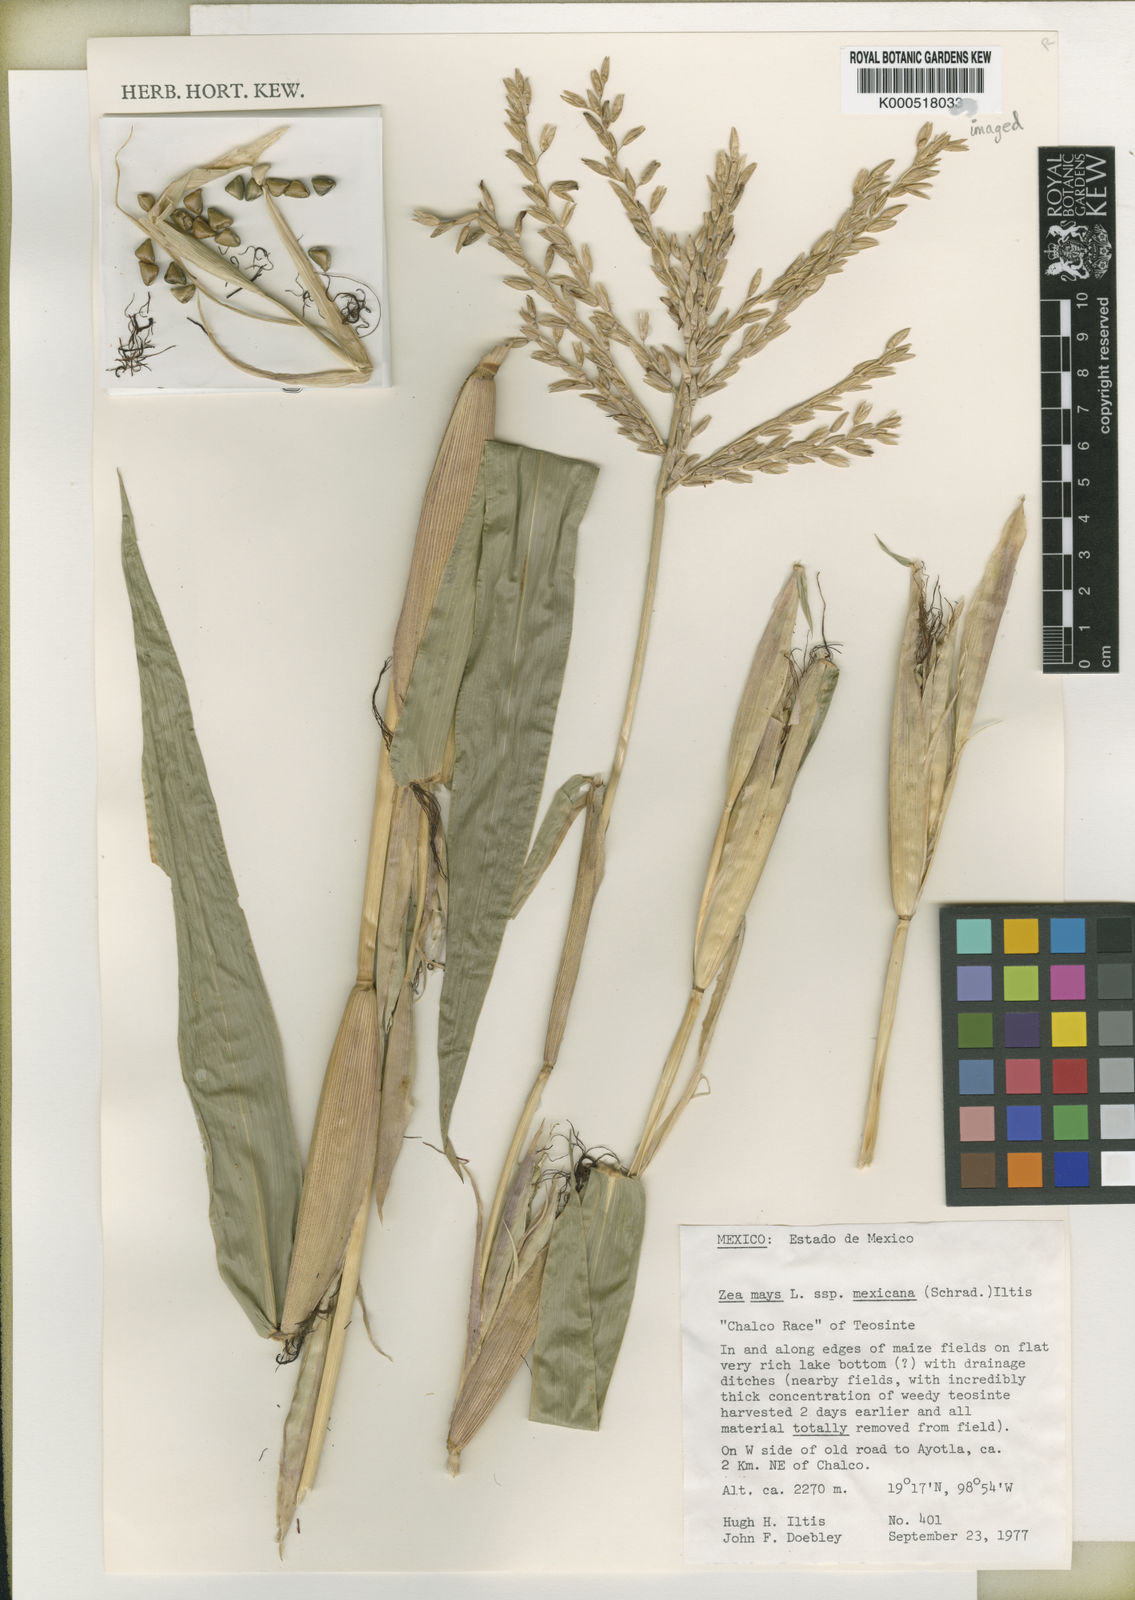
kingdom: Plantae
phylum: Tracheophyta
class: Liliopsida
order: Poales
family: Poaceae
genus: Zea
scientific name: Zea mexicana
